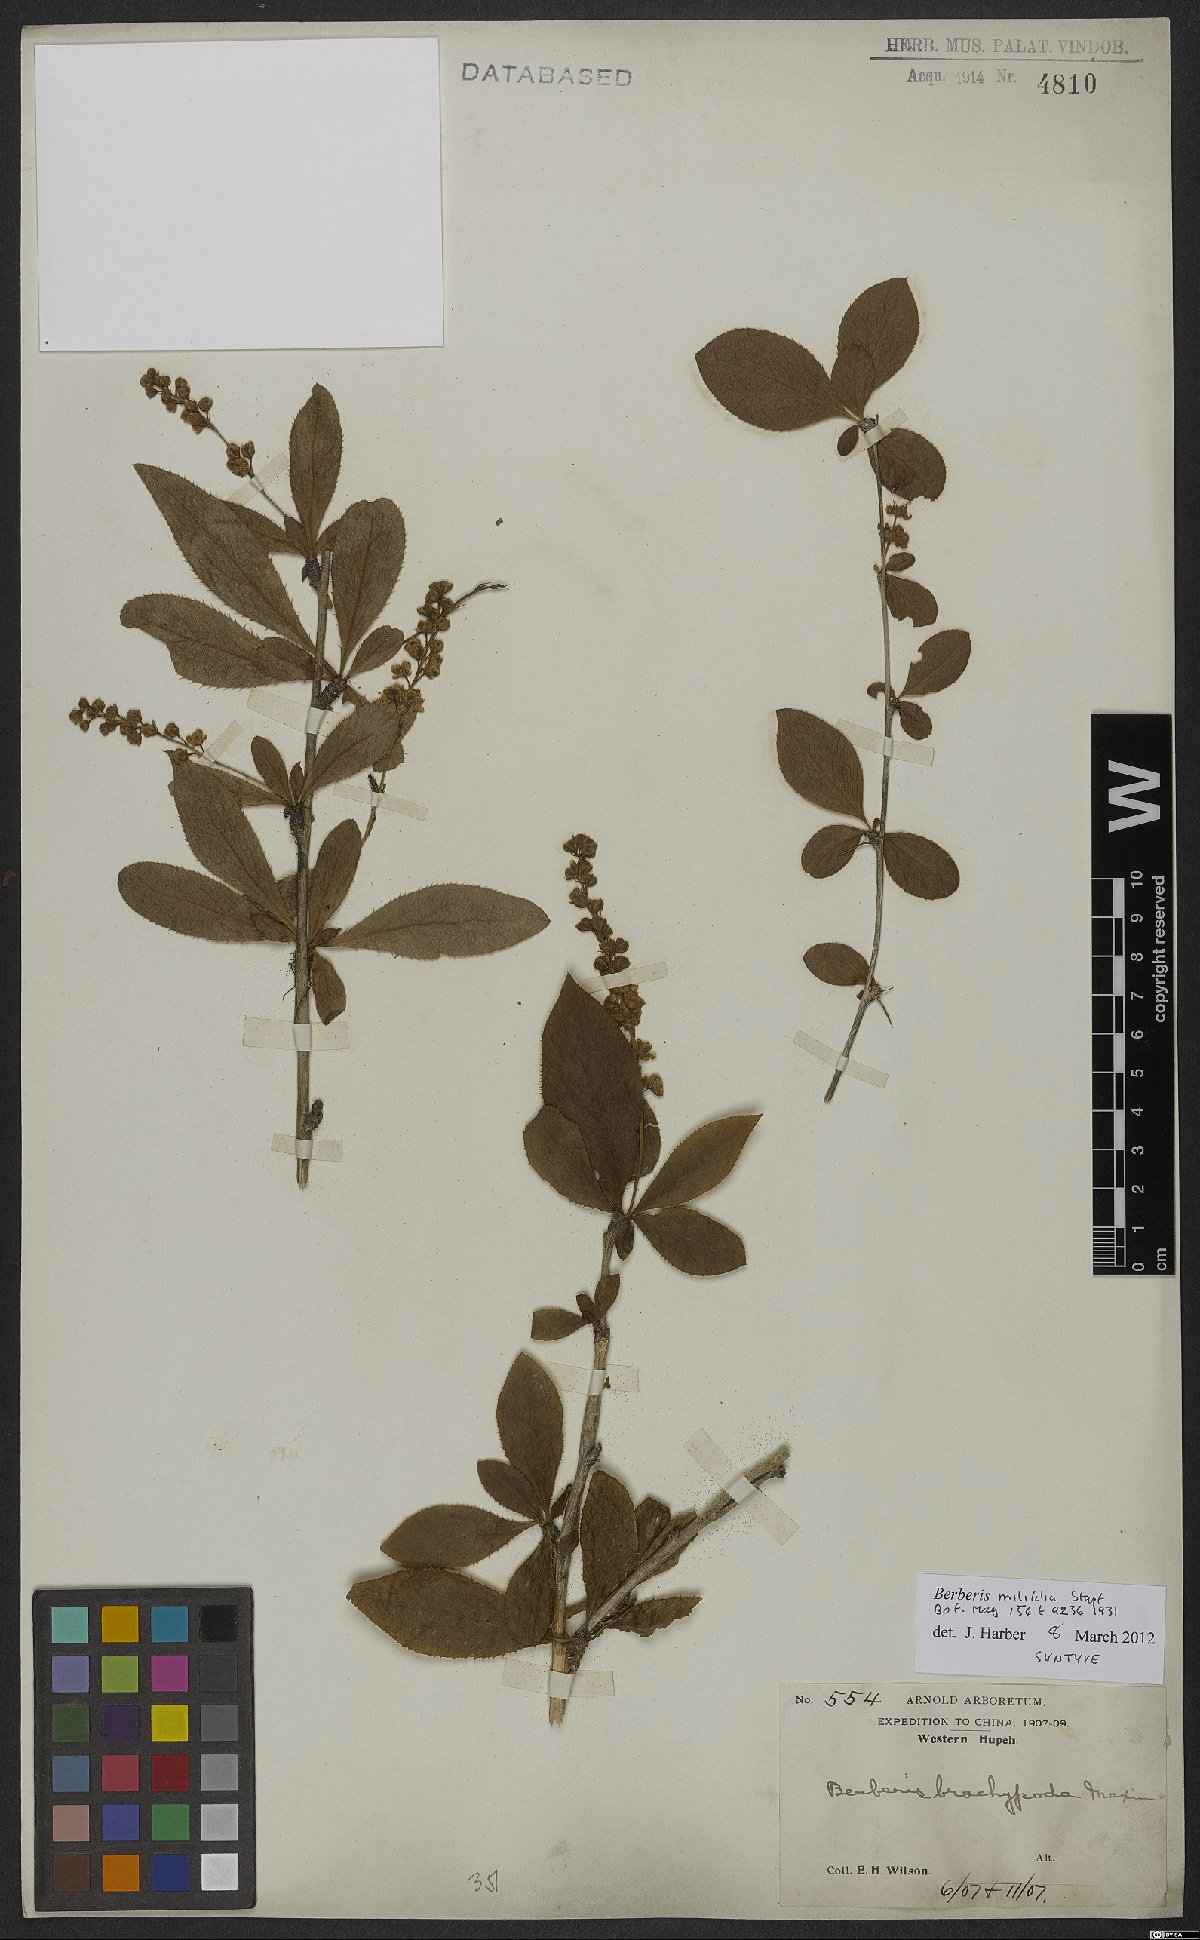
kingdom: Plantae
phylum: Tracheophyta
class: Magnoliopsida
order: Ranunculales
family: Berberidaceae
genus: Berberis
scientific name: Berberis subsessiliflora
